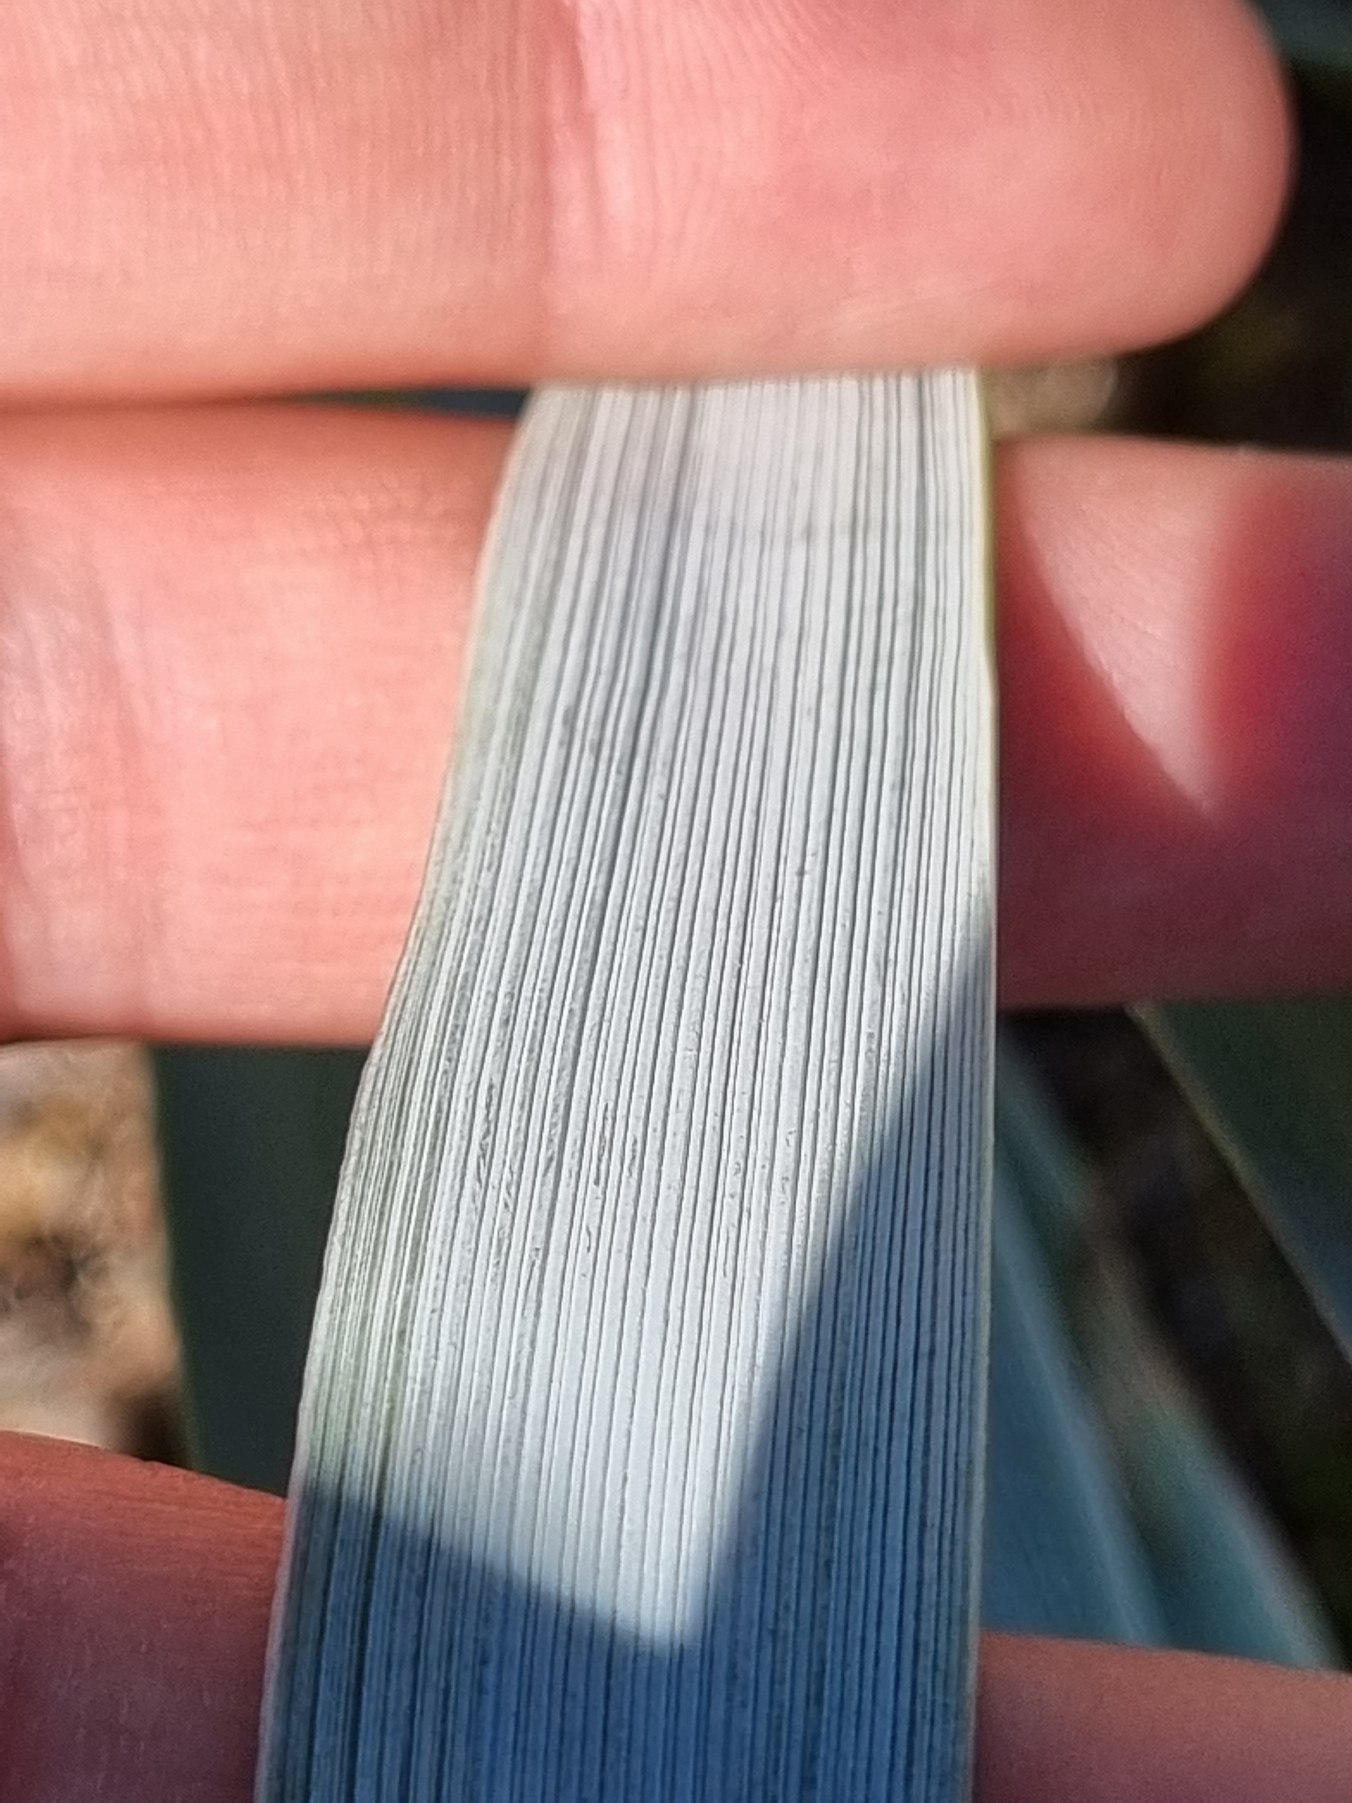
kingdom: Plantae
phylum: Tracheophyta
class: Liliopsida
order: Poales
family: Poaceae
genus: Leymus
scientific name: Leymus arenarius
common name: Marehalm
